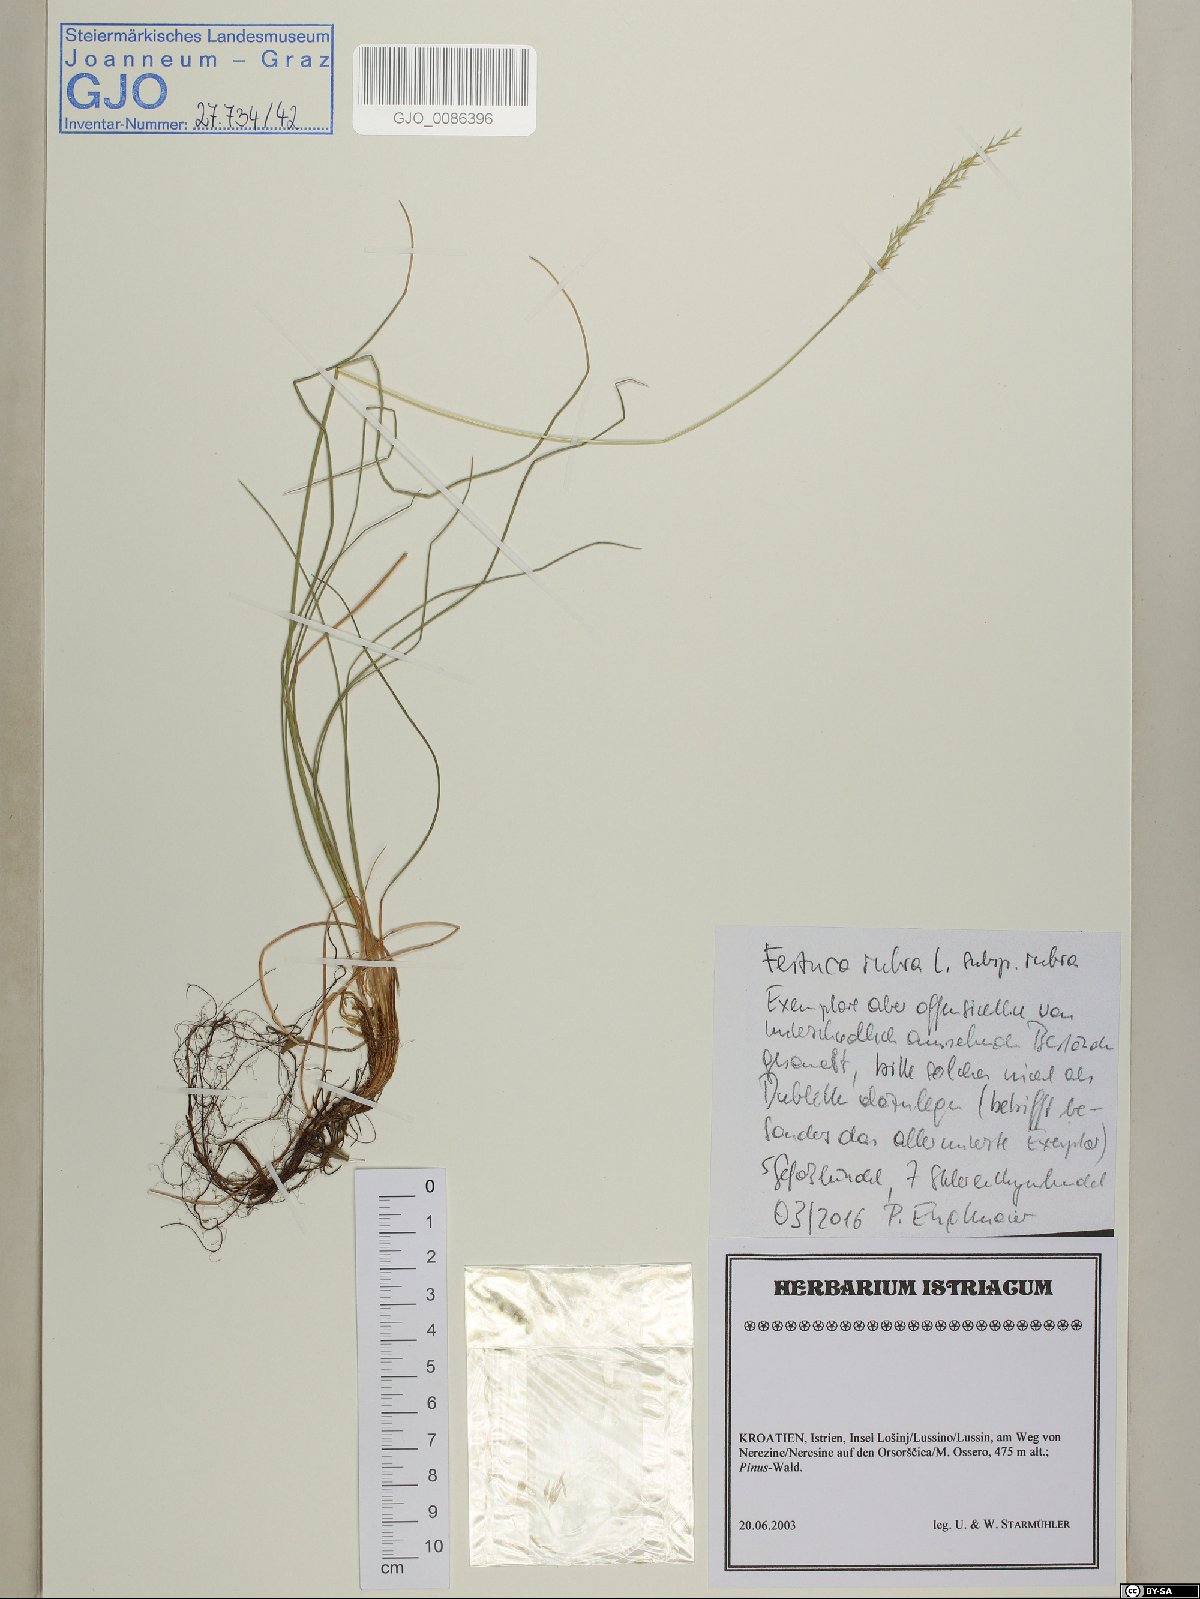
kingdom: Plantae
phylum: Tracheophyta
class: Liliopsida
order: Poales
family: Poaceae
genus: Festuca
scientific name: Festuca rubra
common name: Red fescue
